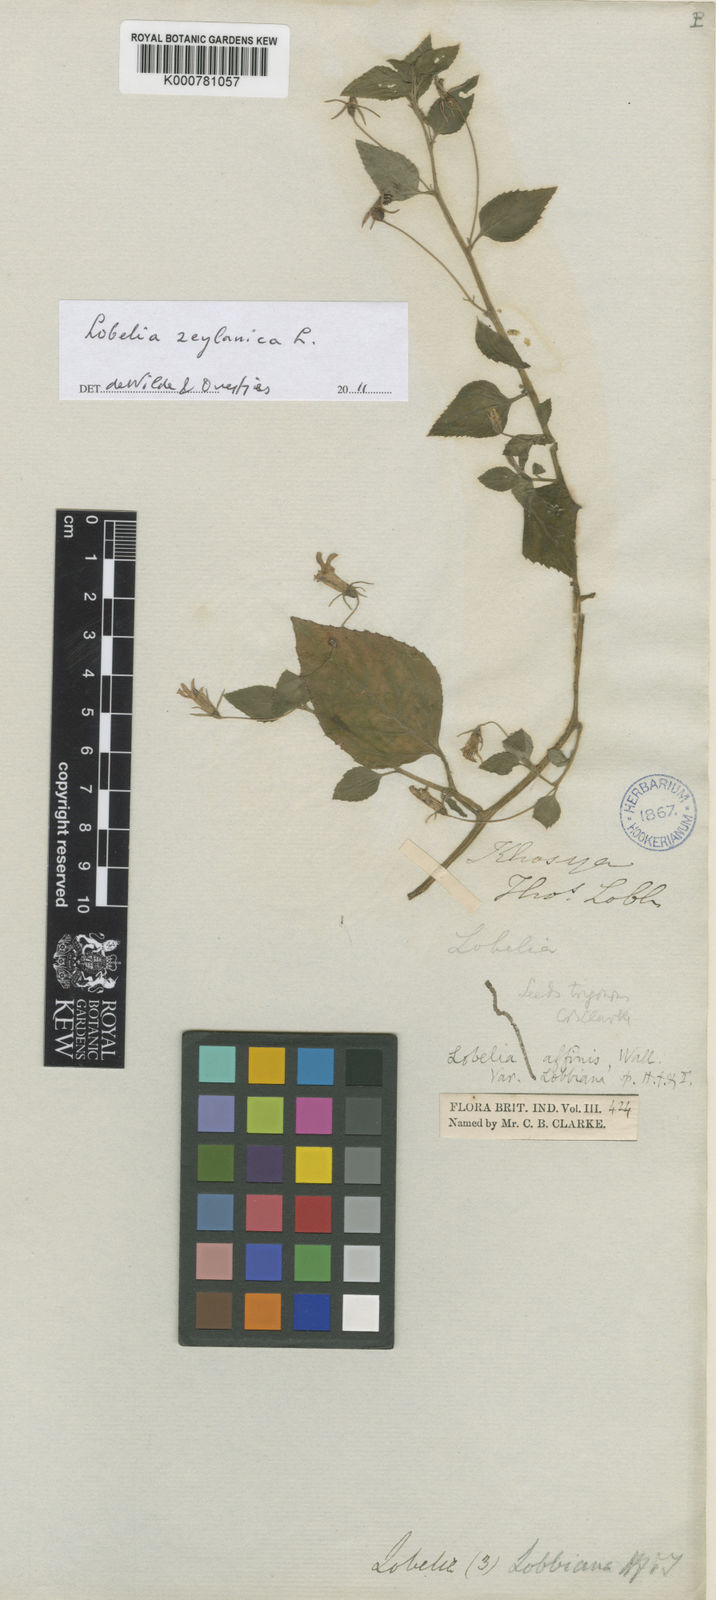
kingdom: Plantae
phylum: Tracheophyta
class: Magnoliopsida
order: Asterales
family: Campanulaceae
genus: Lobelia
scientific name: Lobelia zeylanica
